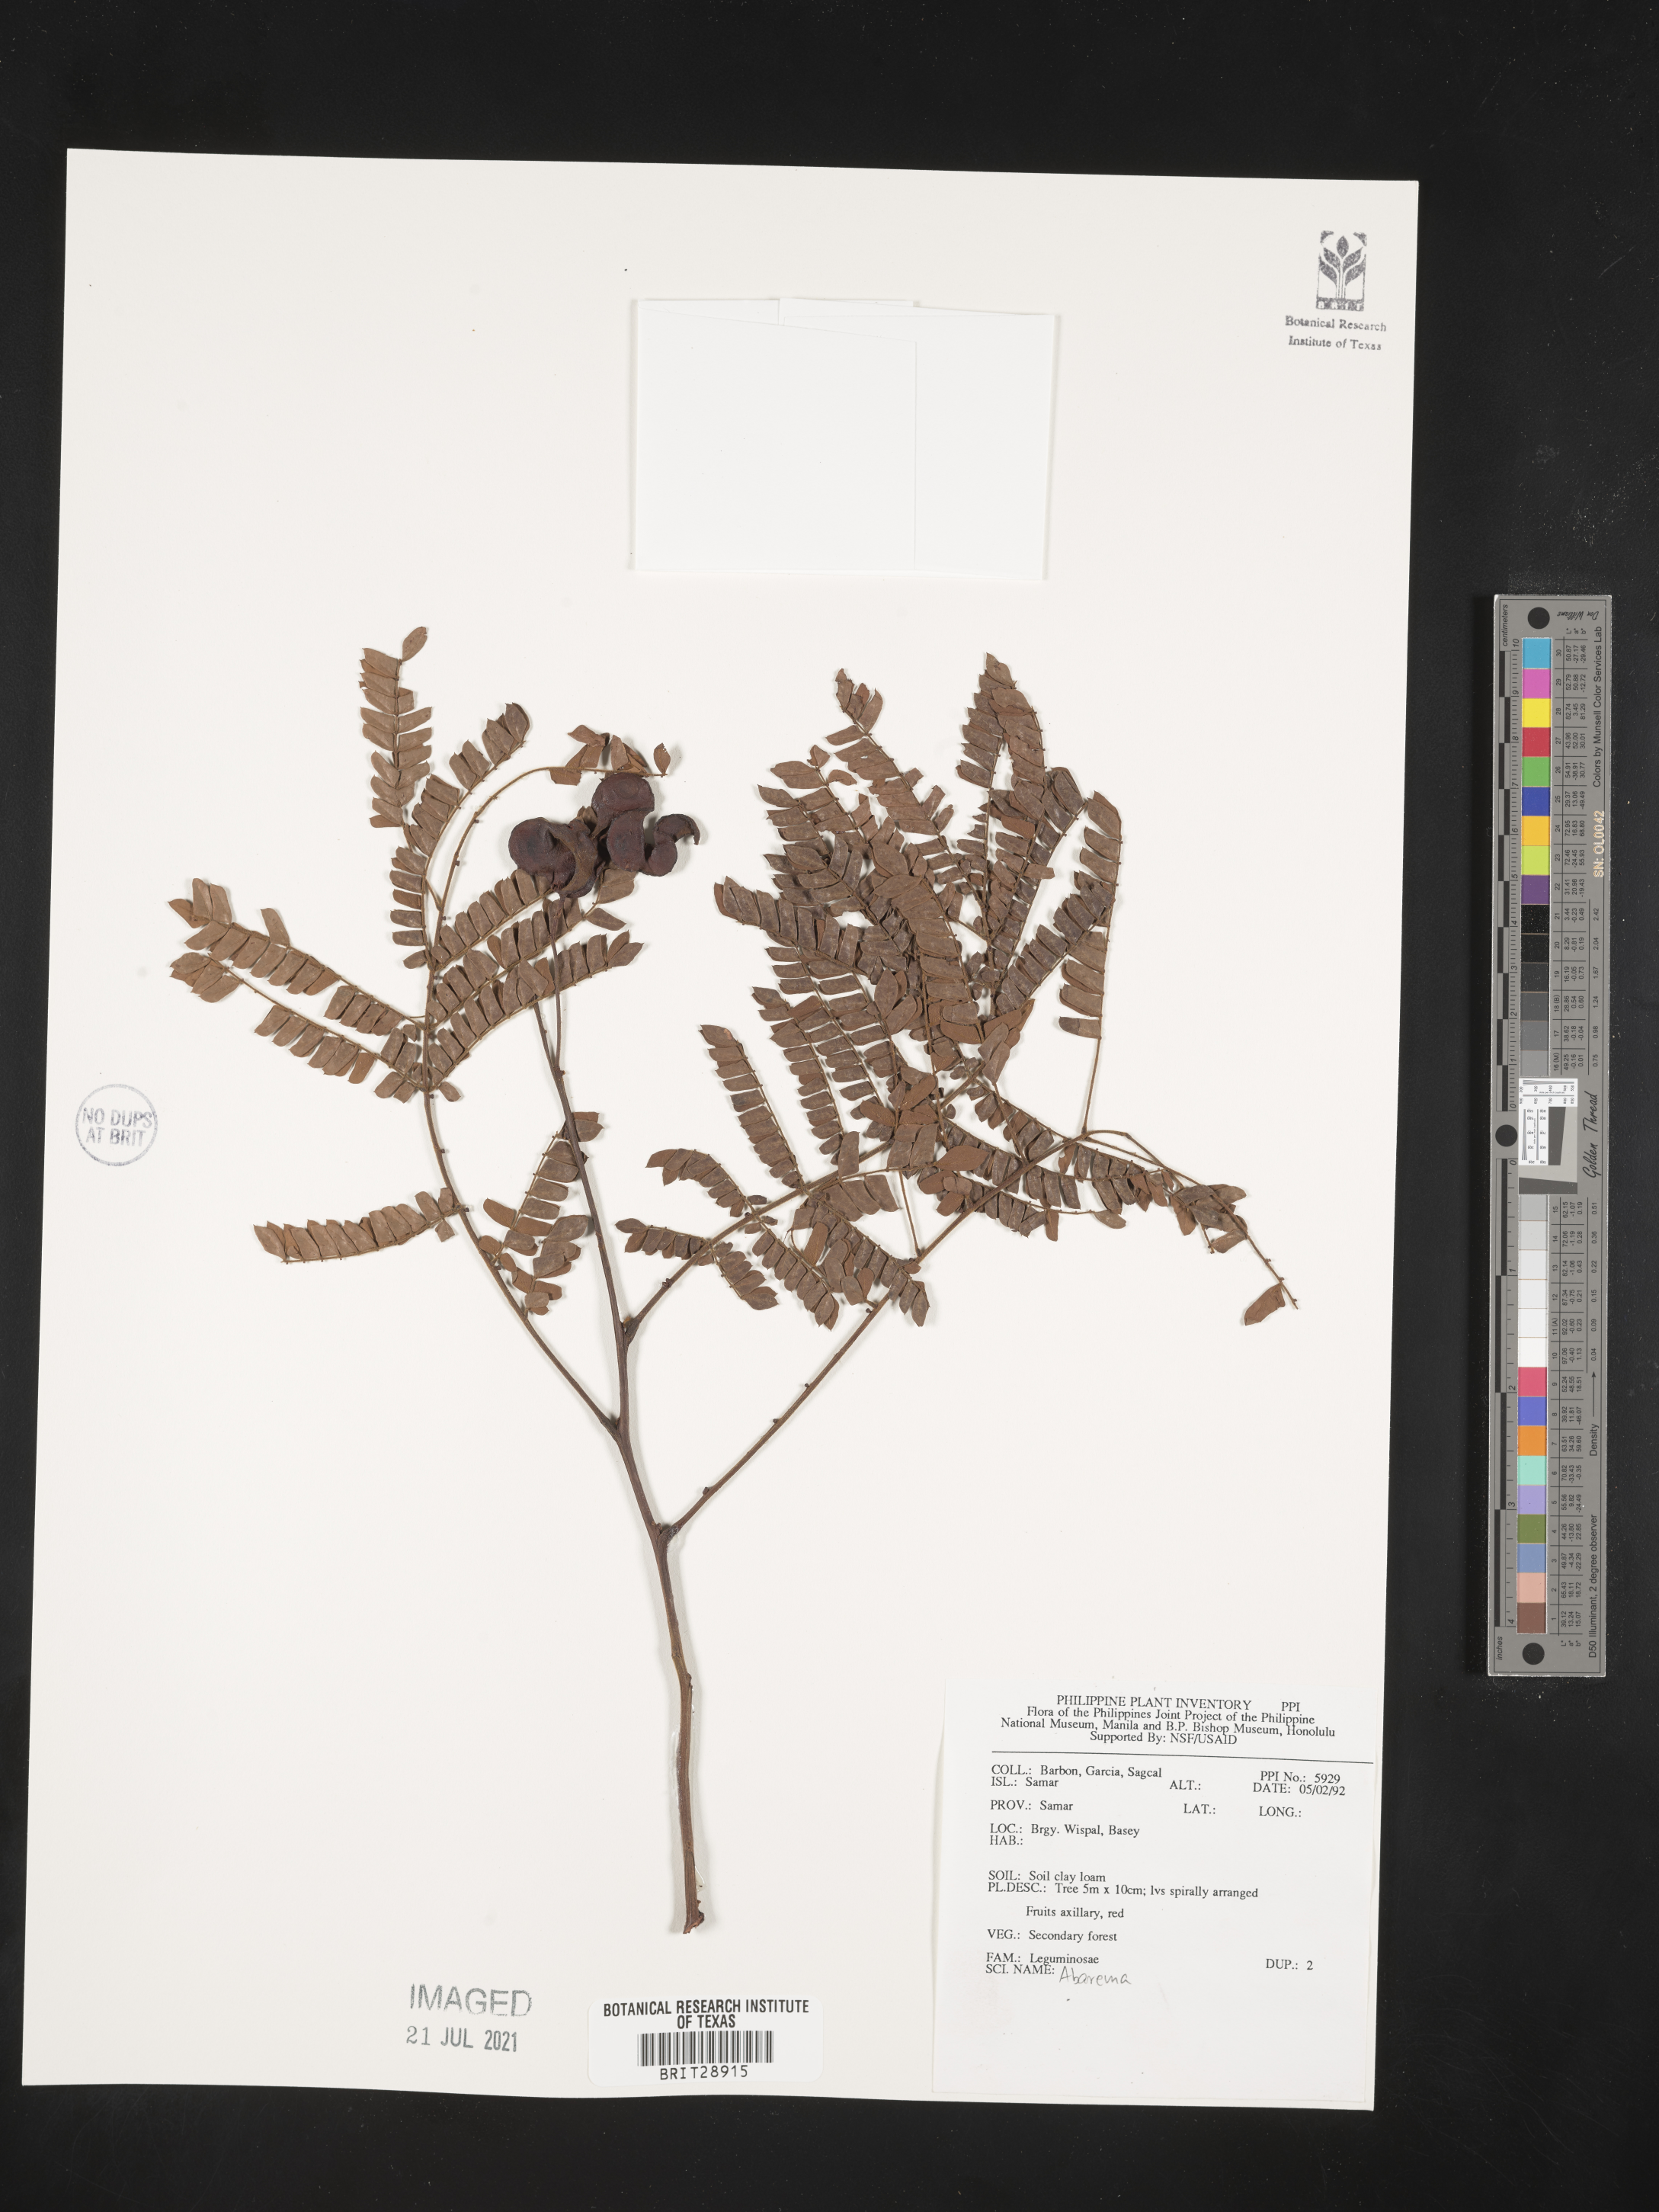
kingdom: Plantae
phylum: Tracheophyta
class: Magnoliopsida
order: Fabales
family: Fabaceae
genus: Abarema
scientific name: Abarema
